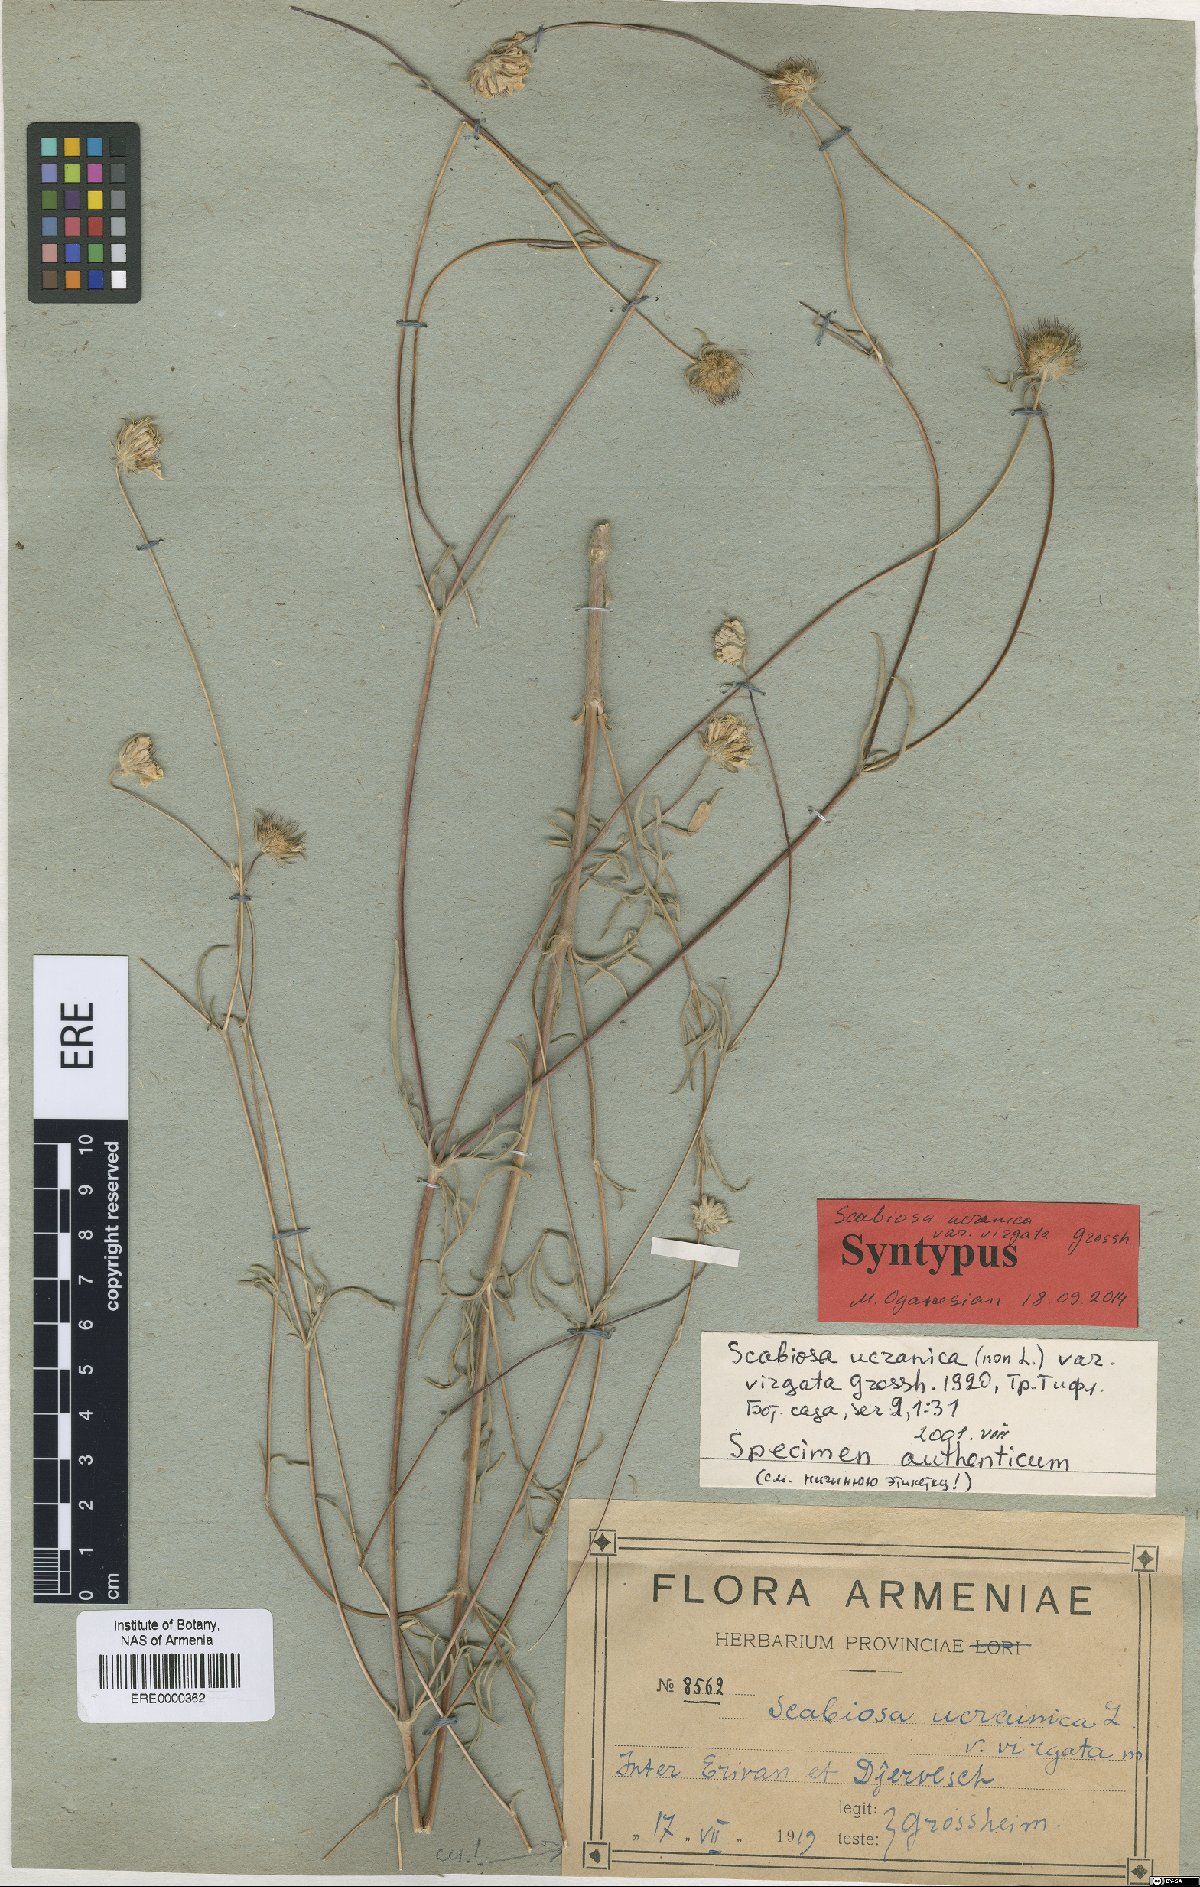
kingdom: Plantae
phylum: Tracheophyta
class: Magnoliopsida
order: Dipsacales
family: Caprifoliaceae
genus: Lomelosia
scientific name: Lomelosia argentea
